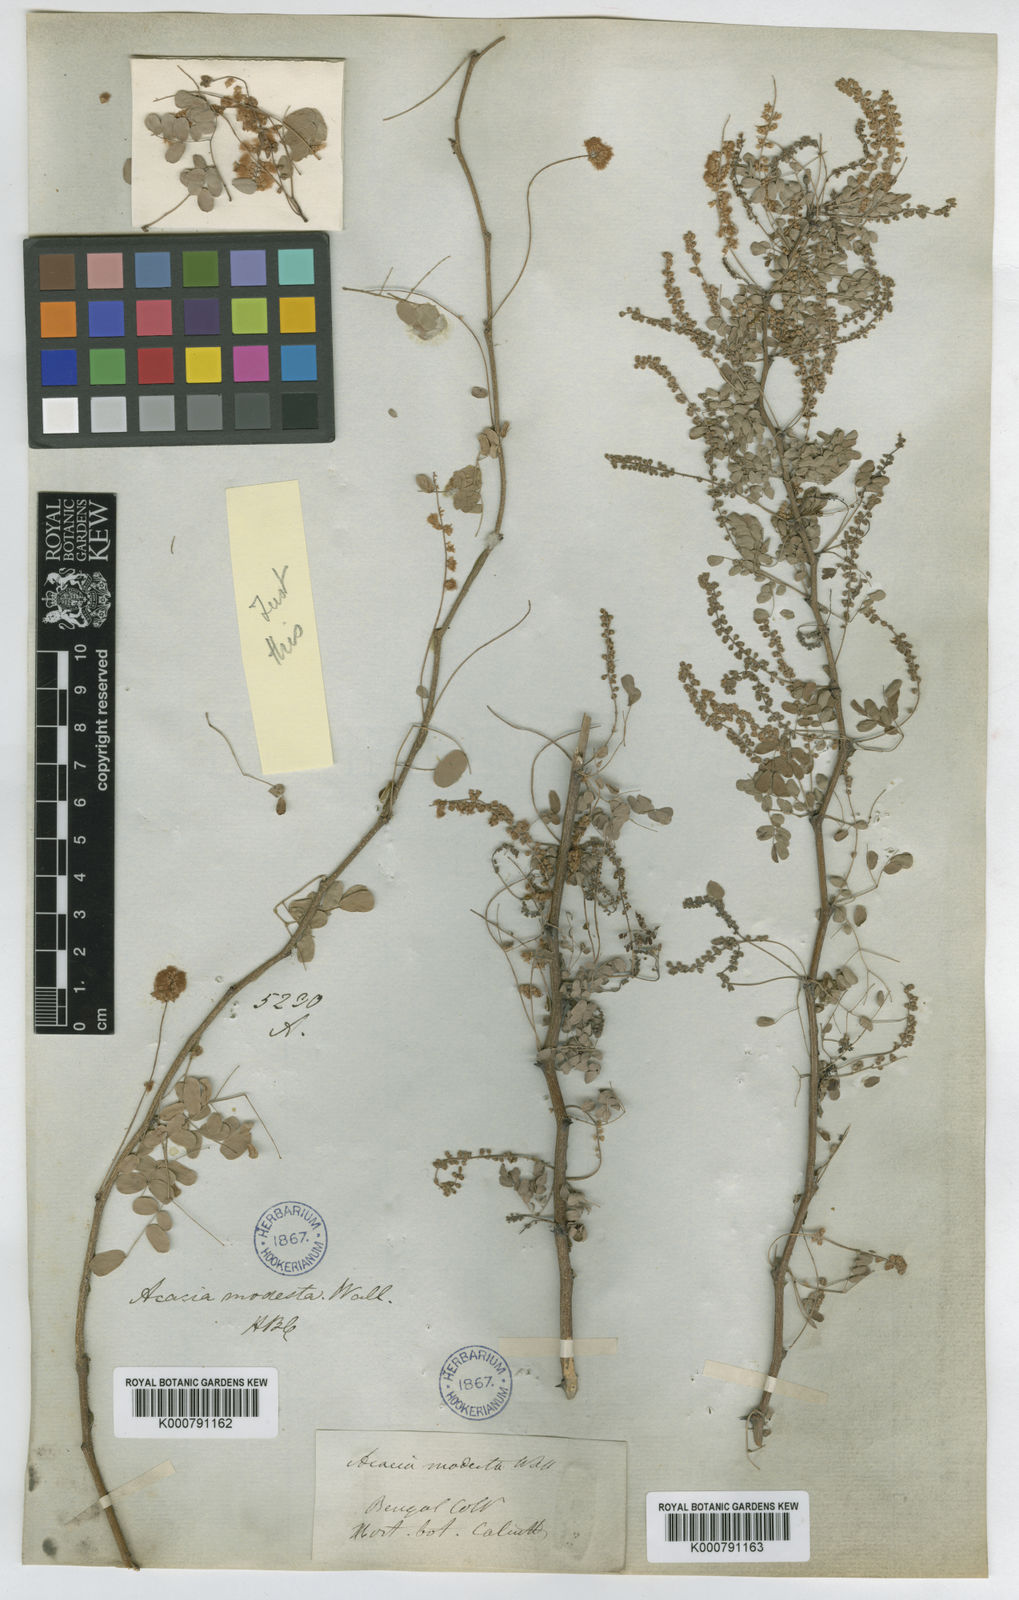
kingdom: Plantae
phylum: Tracheophyta
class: Magnoliopsida
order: Fabales
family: Fabaceae
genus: Senegalia
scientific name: Senegalia modesta
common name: Amritsar-gum
